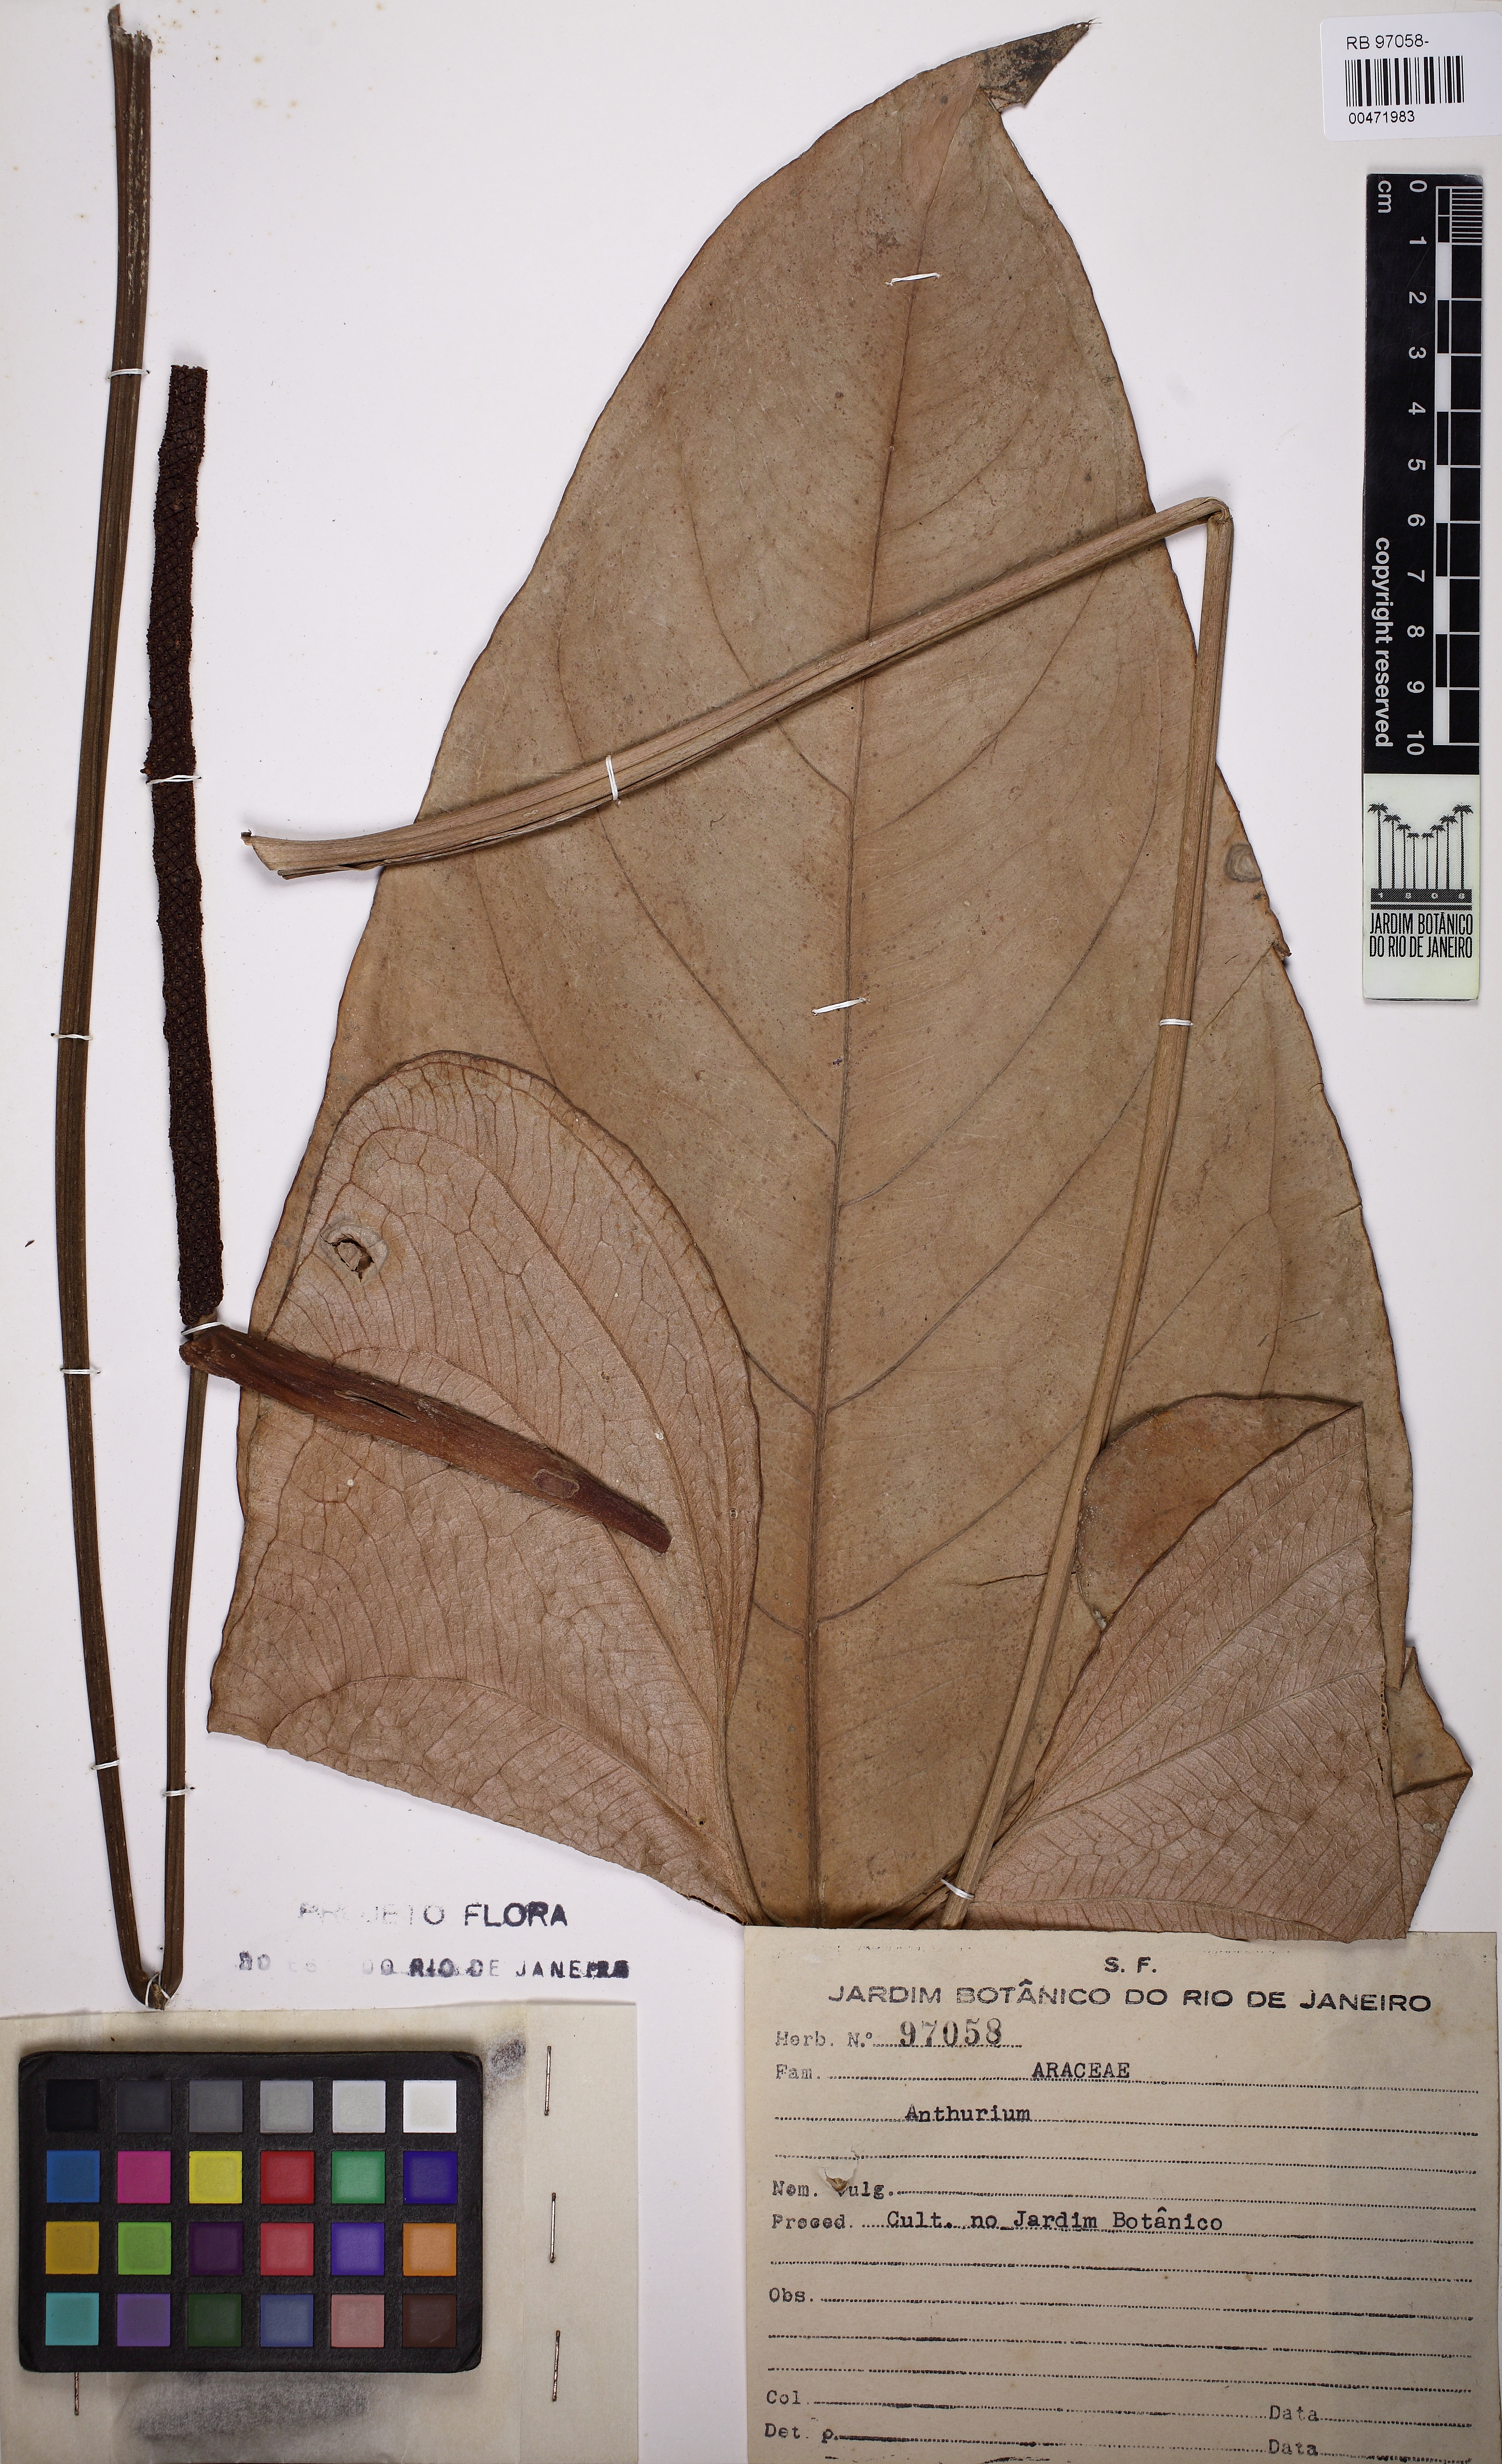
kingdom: Plantae
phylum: Tracheophyta
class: Liliopsida
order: Alismatales
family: Araceae
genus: Anthurium
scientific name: Anthurium
